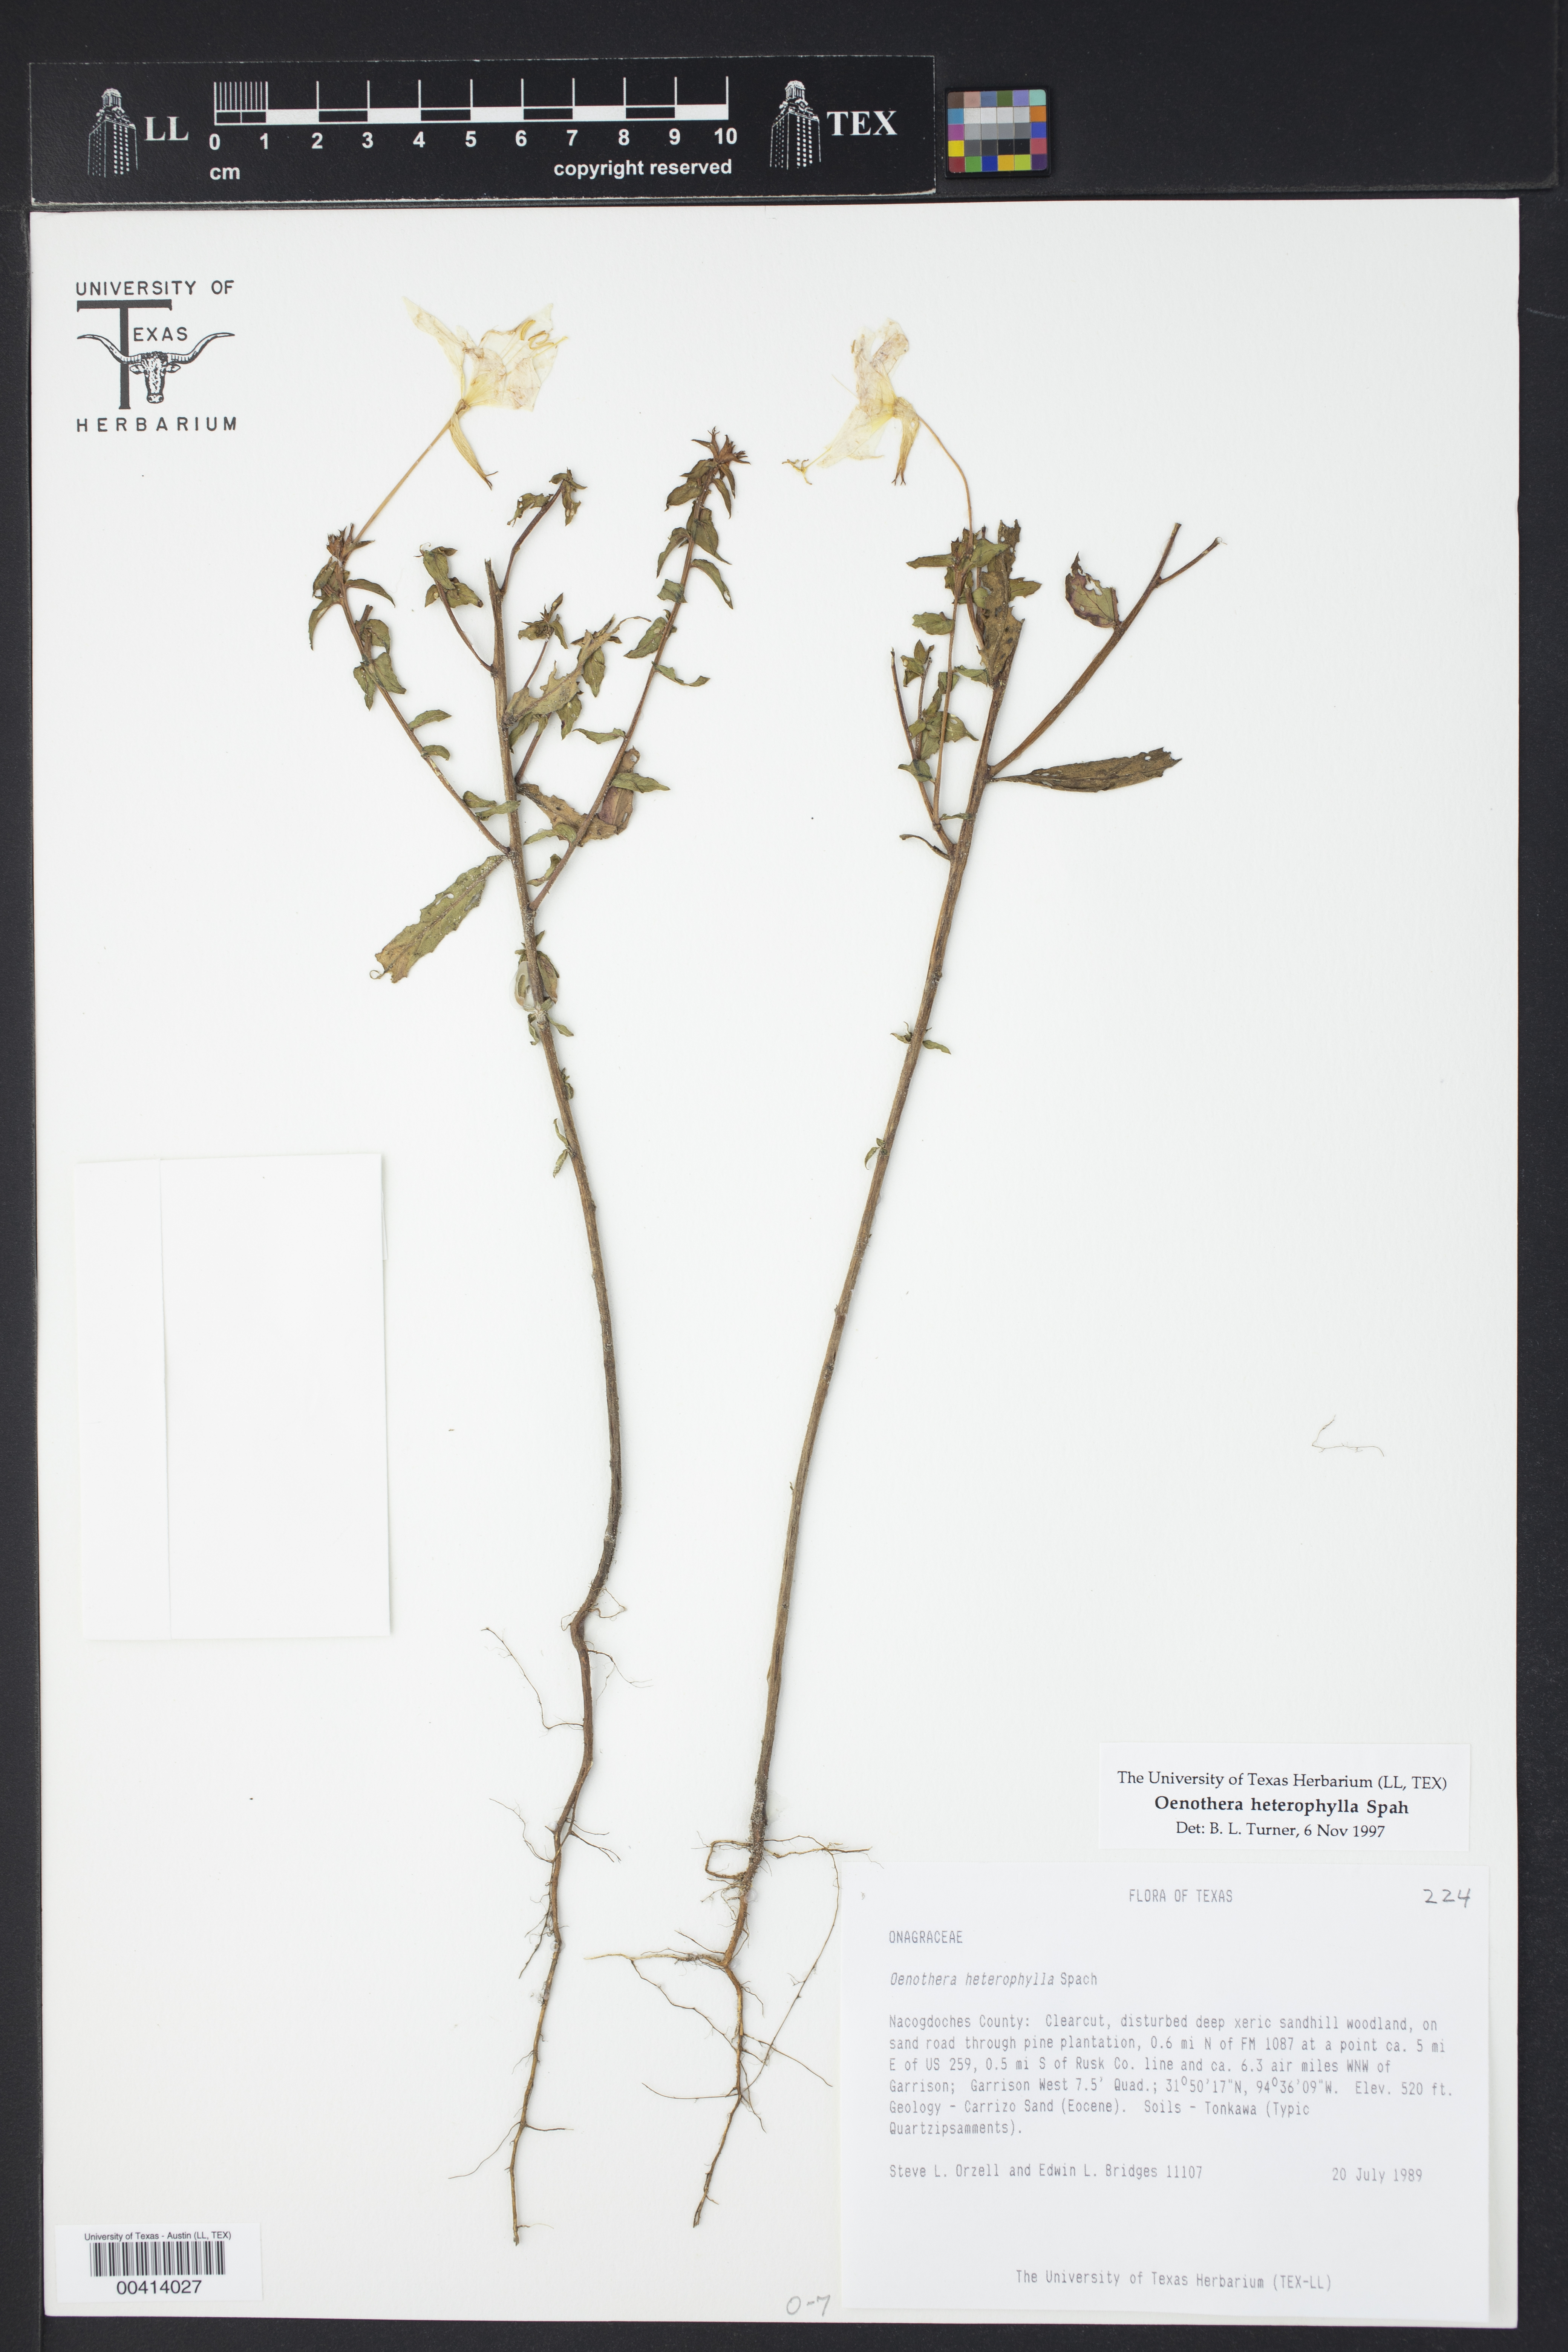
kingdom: Plantae
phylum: Tracheophyta
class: Magnoliopsida
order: Myrtales
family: Onagraceae
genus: Oenothera
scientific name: Oenothera heterophylla
